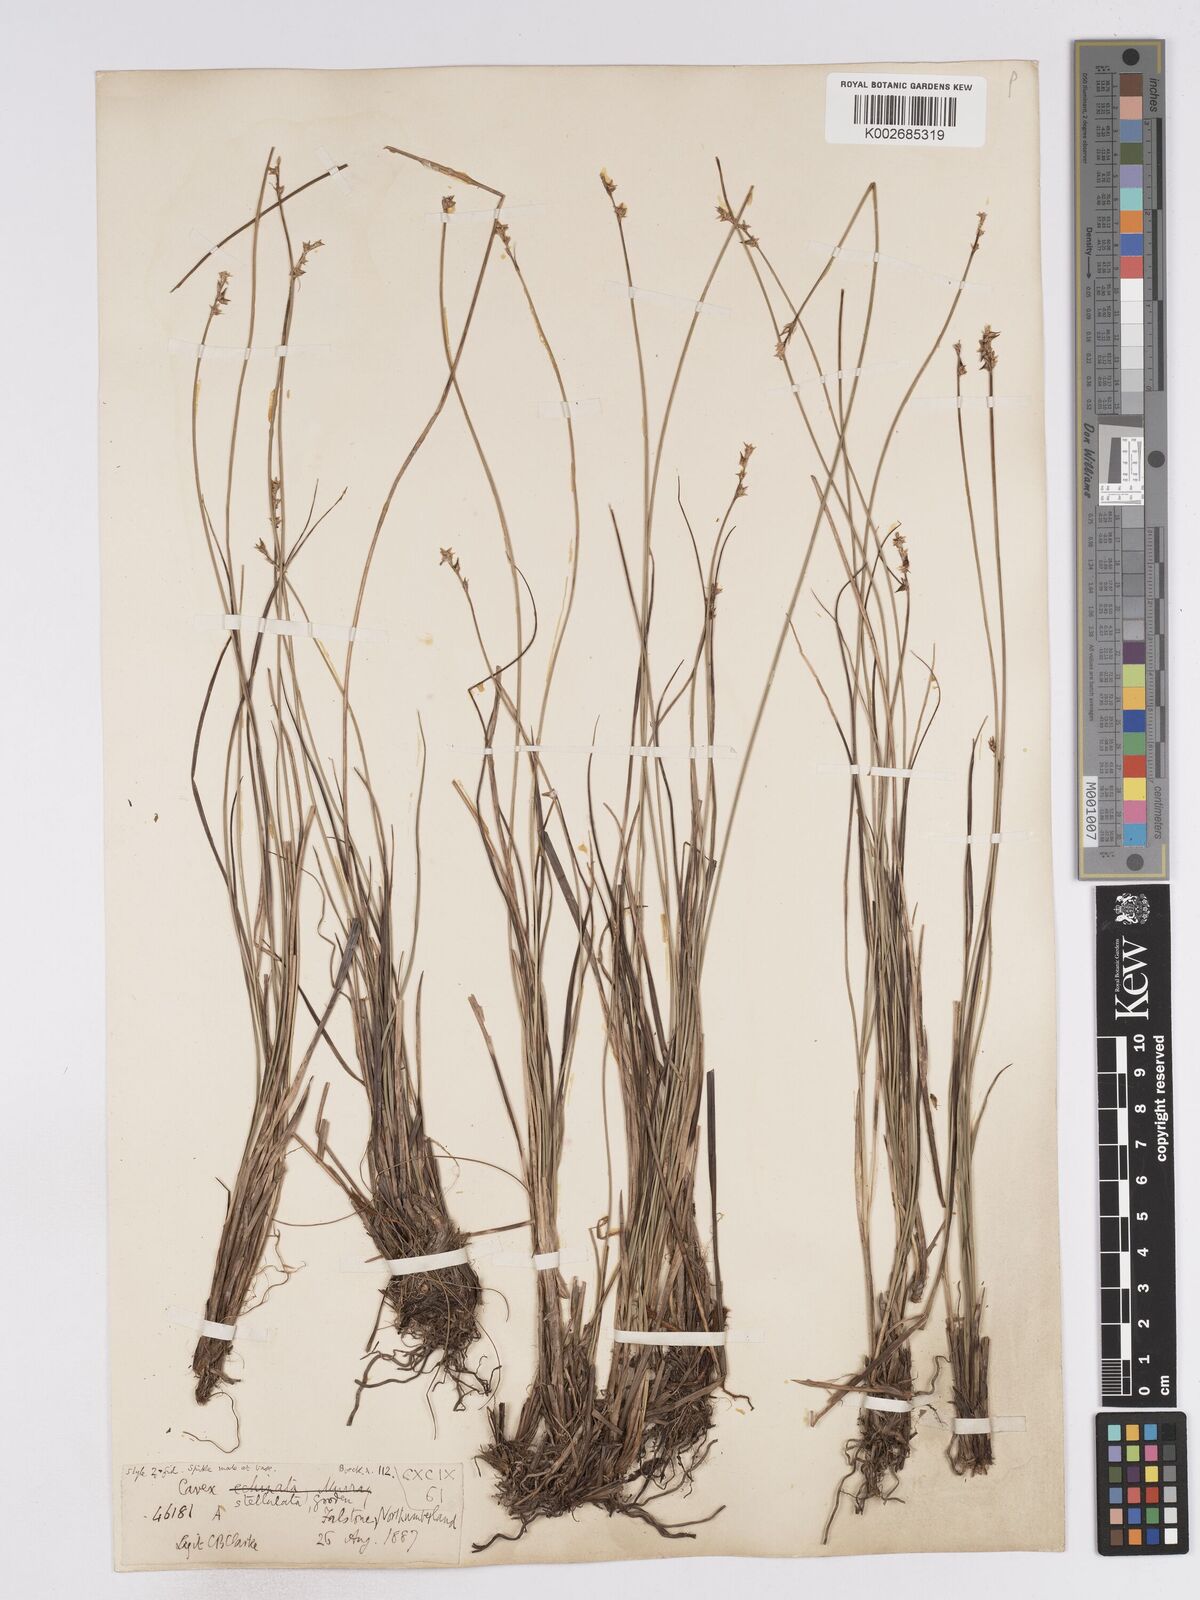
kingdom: Plantae
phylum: Tracheophyta
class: Liliopsida
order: Poales
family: Cyperaceae
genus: Carex
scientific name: Carex echinata
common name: Star sedge
